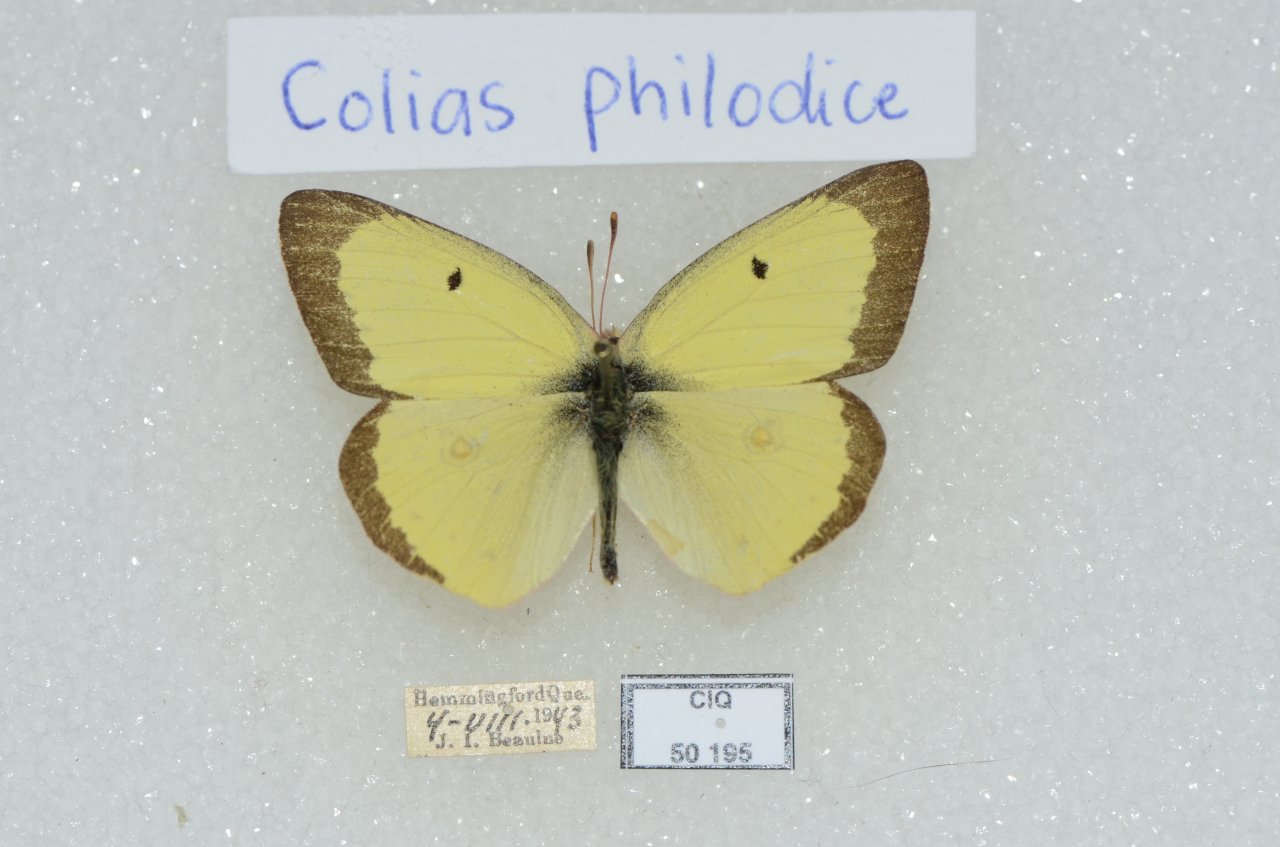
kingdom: Animalia
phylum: Arthropoda
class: Insecta
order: Lepidoptera
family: Pieridae
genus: Colias
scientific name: Colias philodice
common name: Clouded Sulphur
